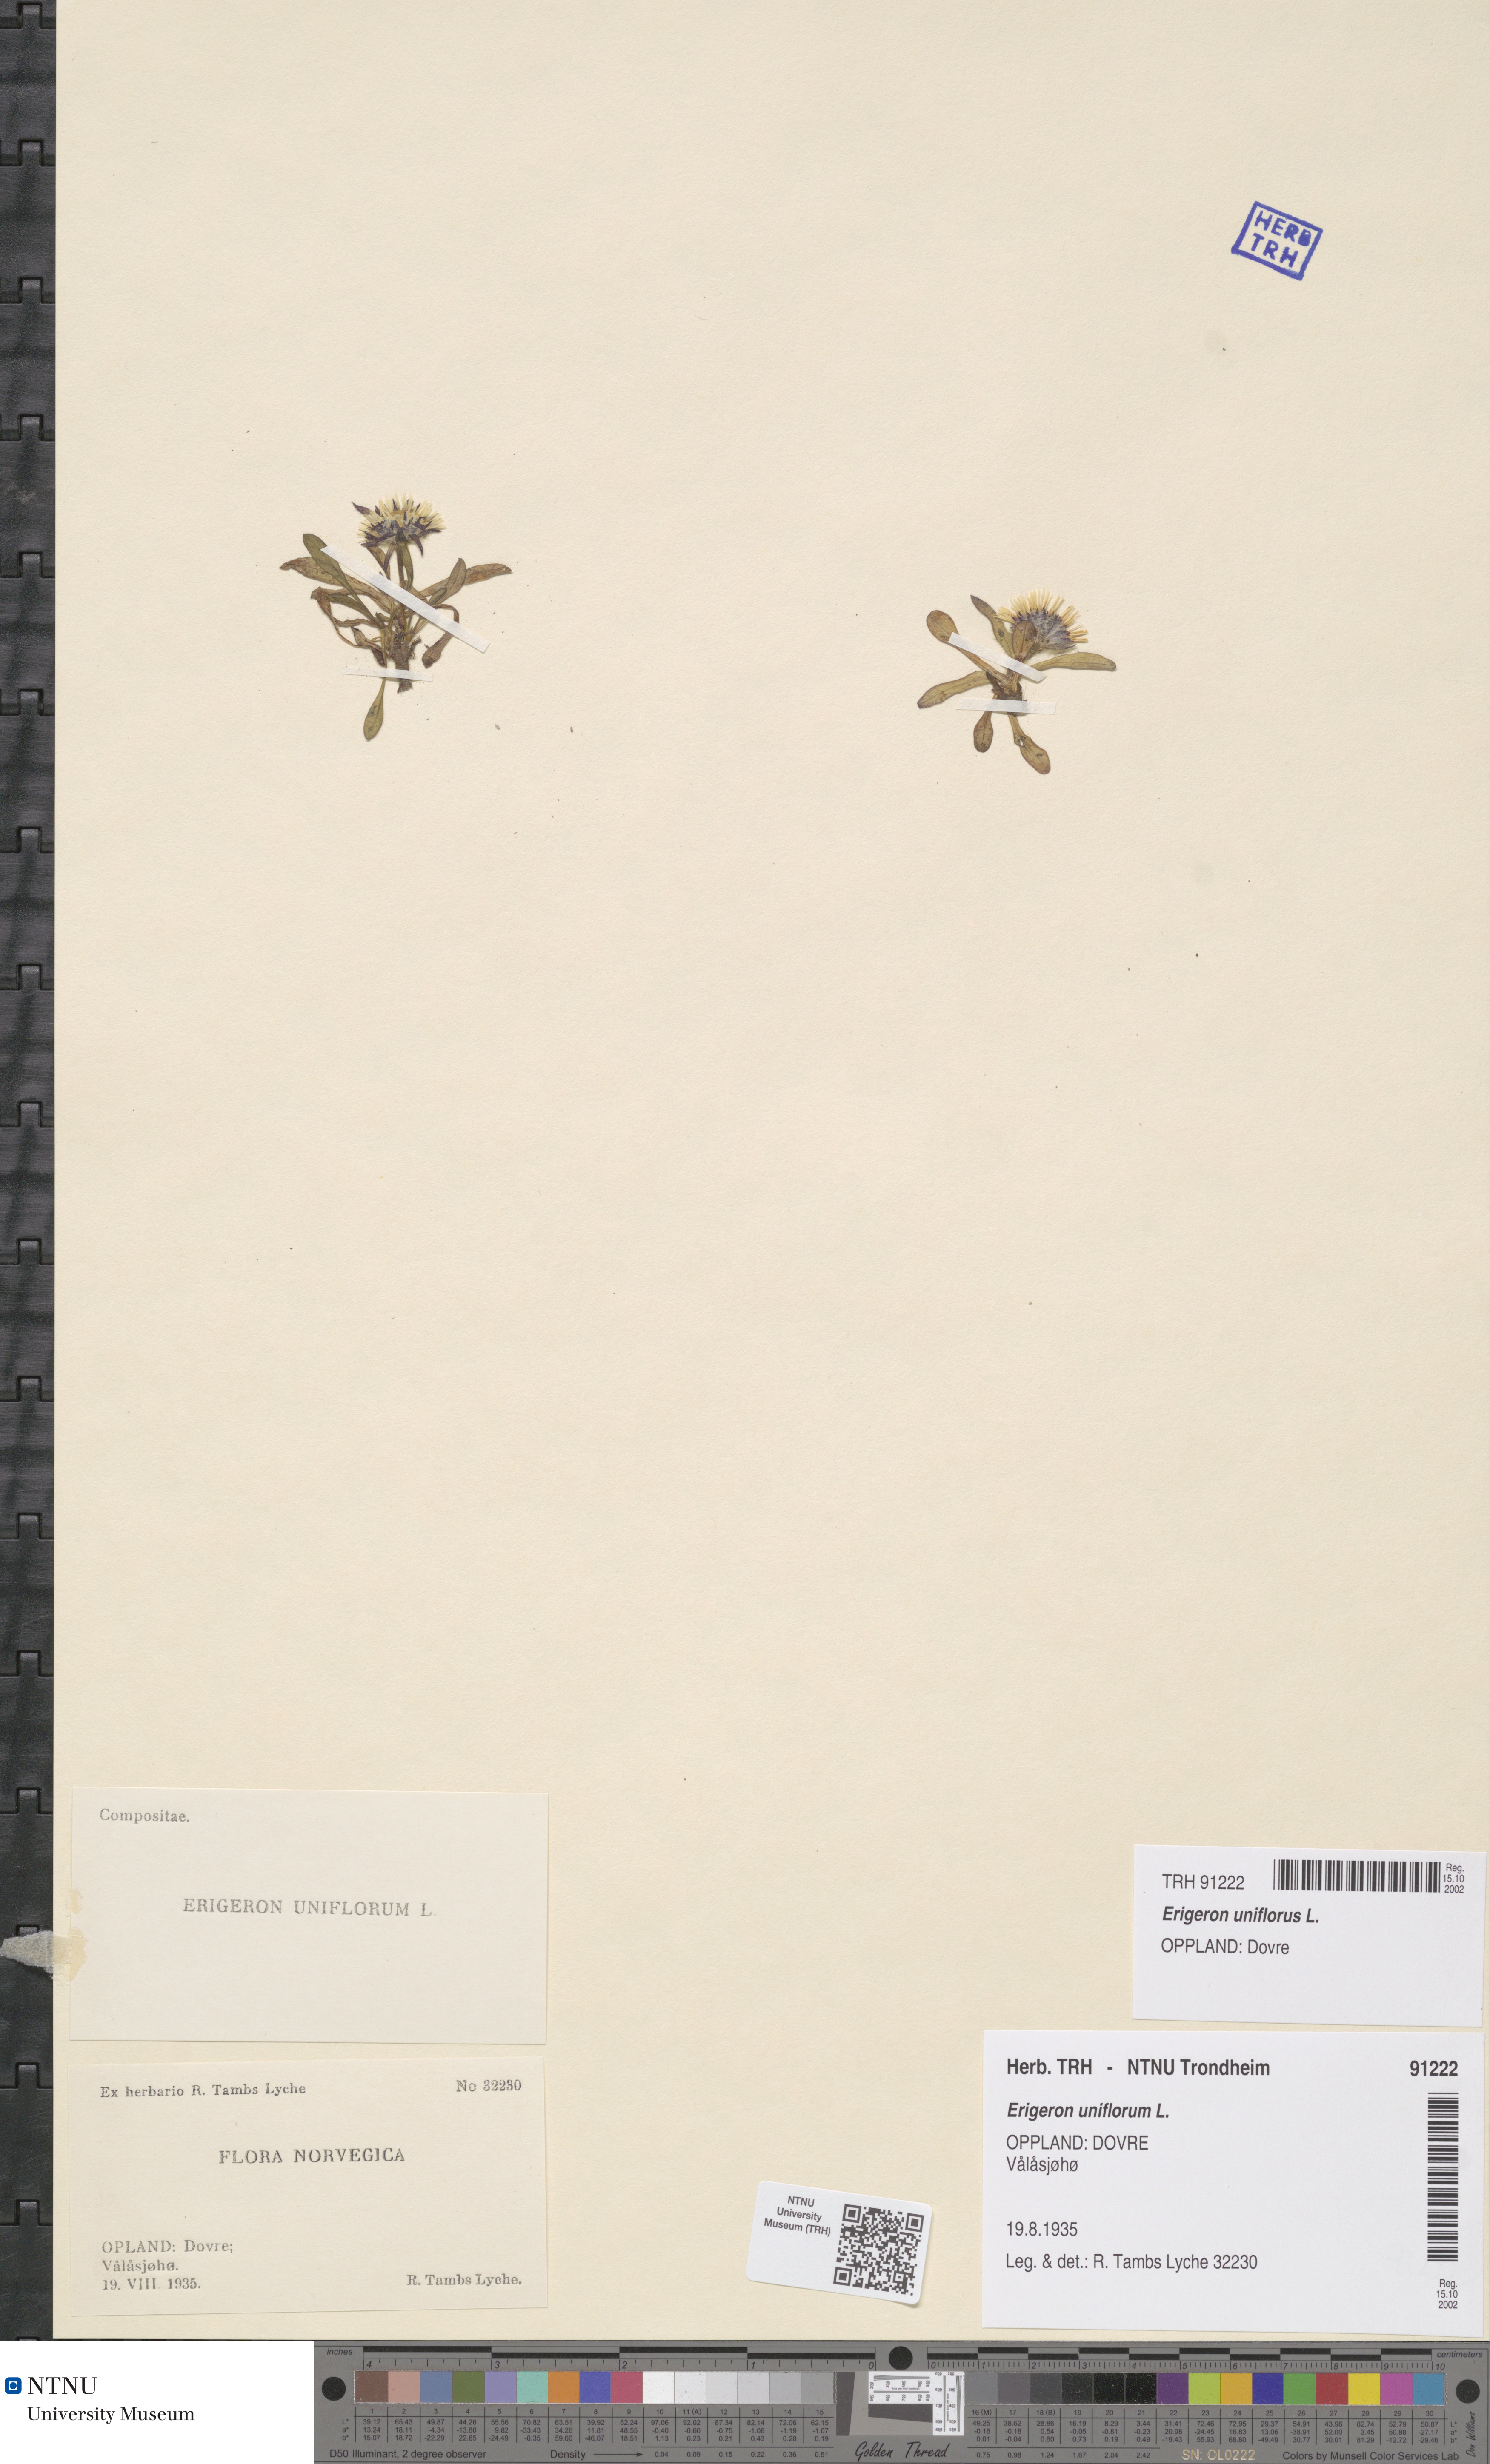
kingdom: Plantae
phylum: Tracheophyta
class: Magnoliopsida
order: Asterales
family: Asteraceae
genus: Erigeron
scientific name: Erigeron uniflorus
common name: Northern daisy
